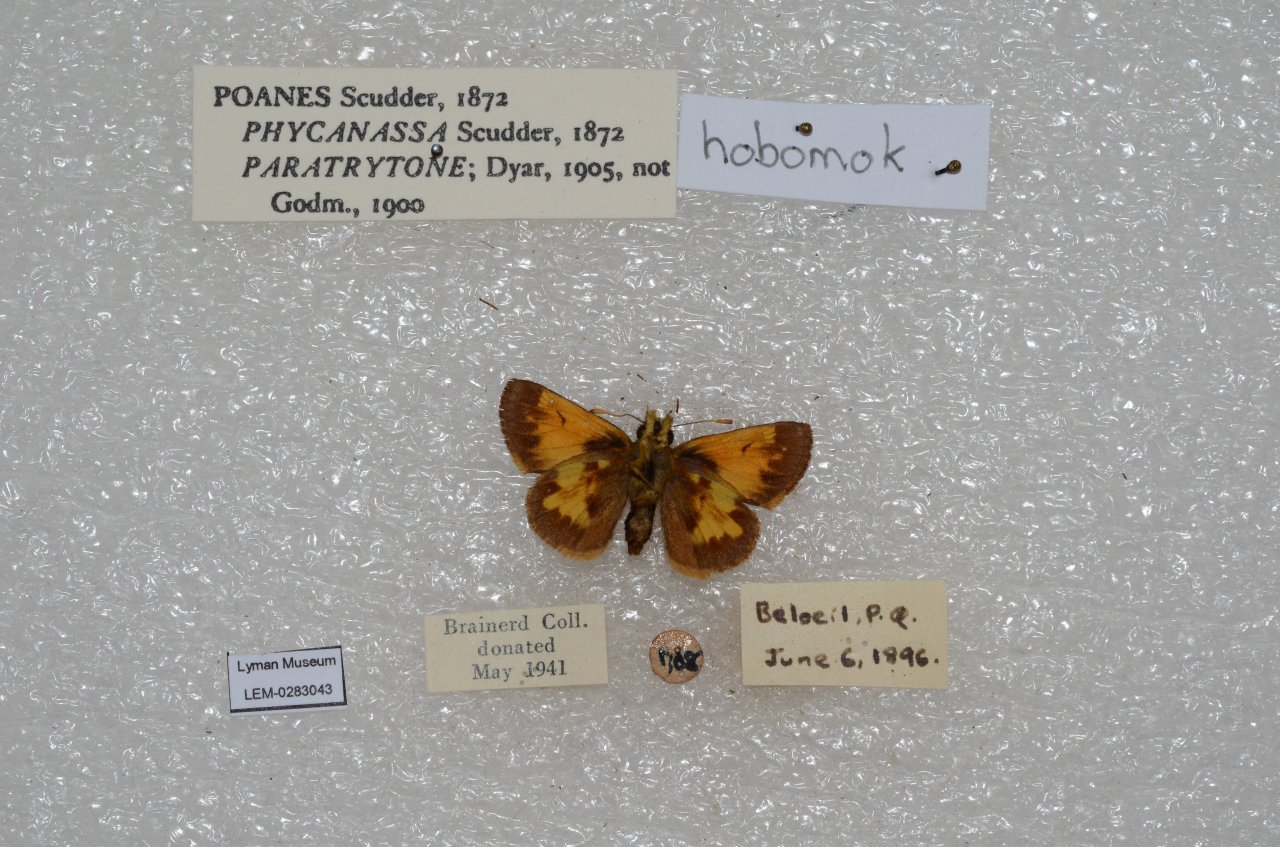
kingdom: Animalia
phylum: Arthropoda
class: Insecta
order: Lepidoptera
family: Hesperiidae
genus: Lon
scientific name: Lon hobomok
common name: Hobomok Skipper
